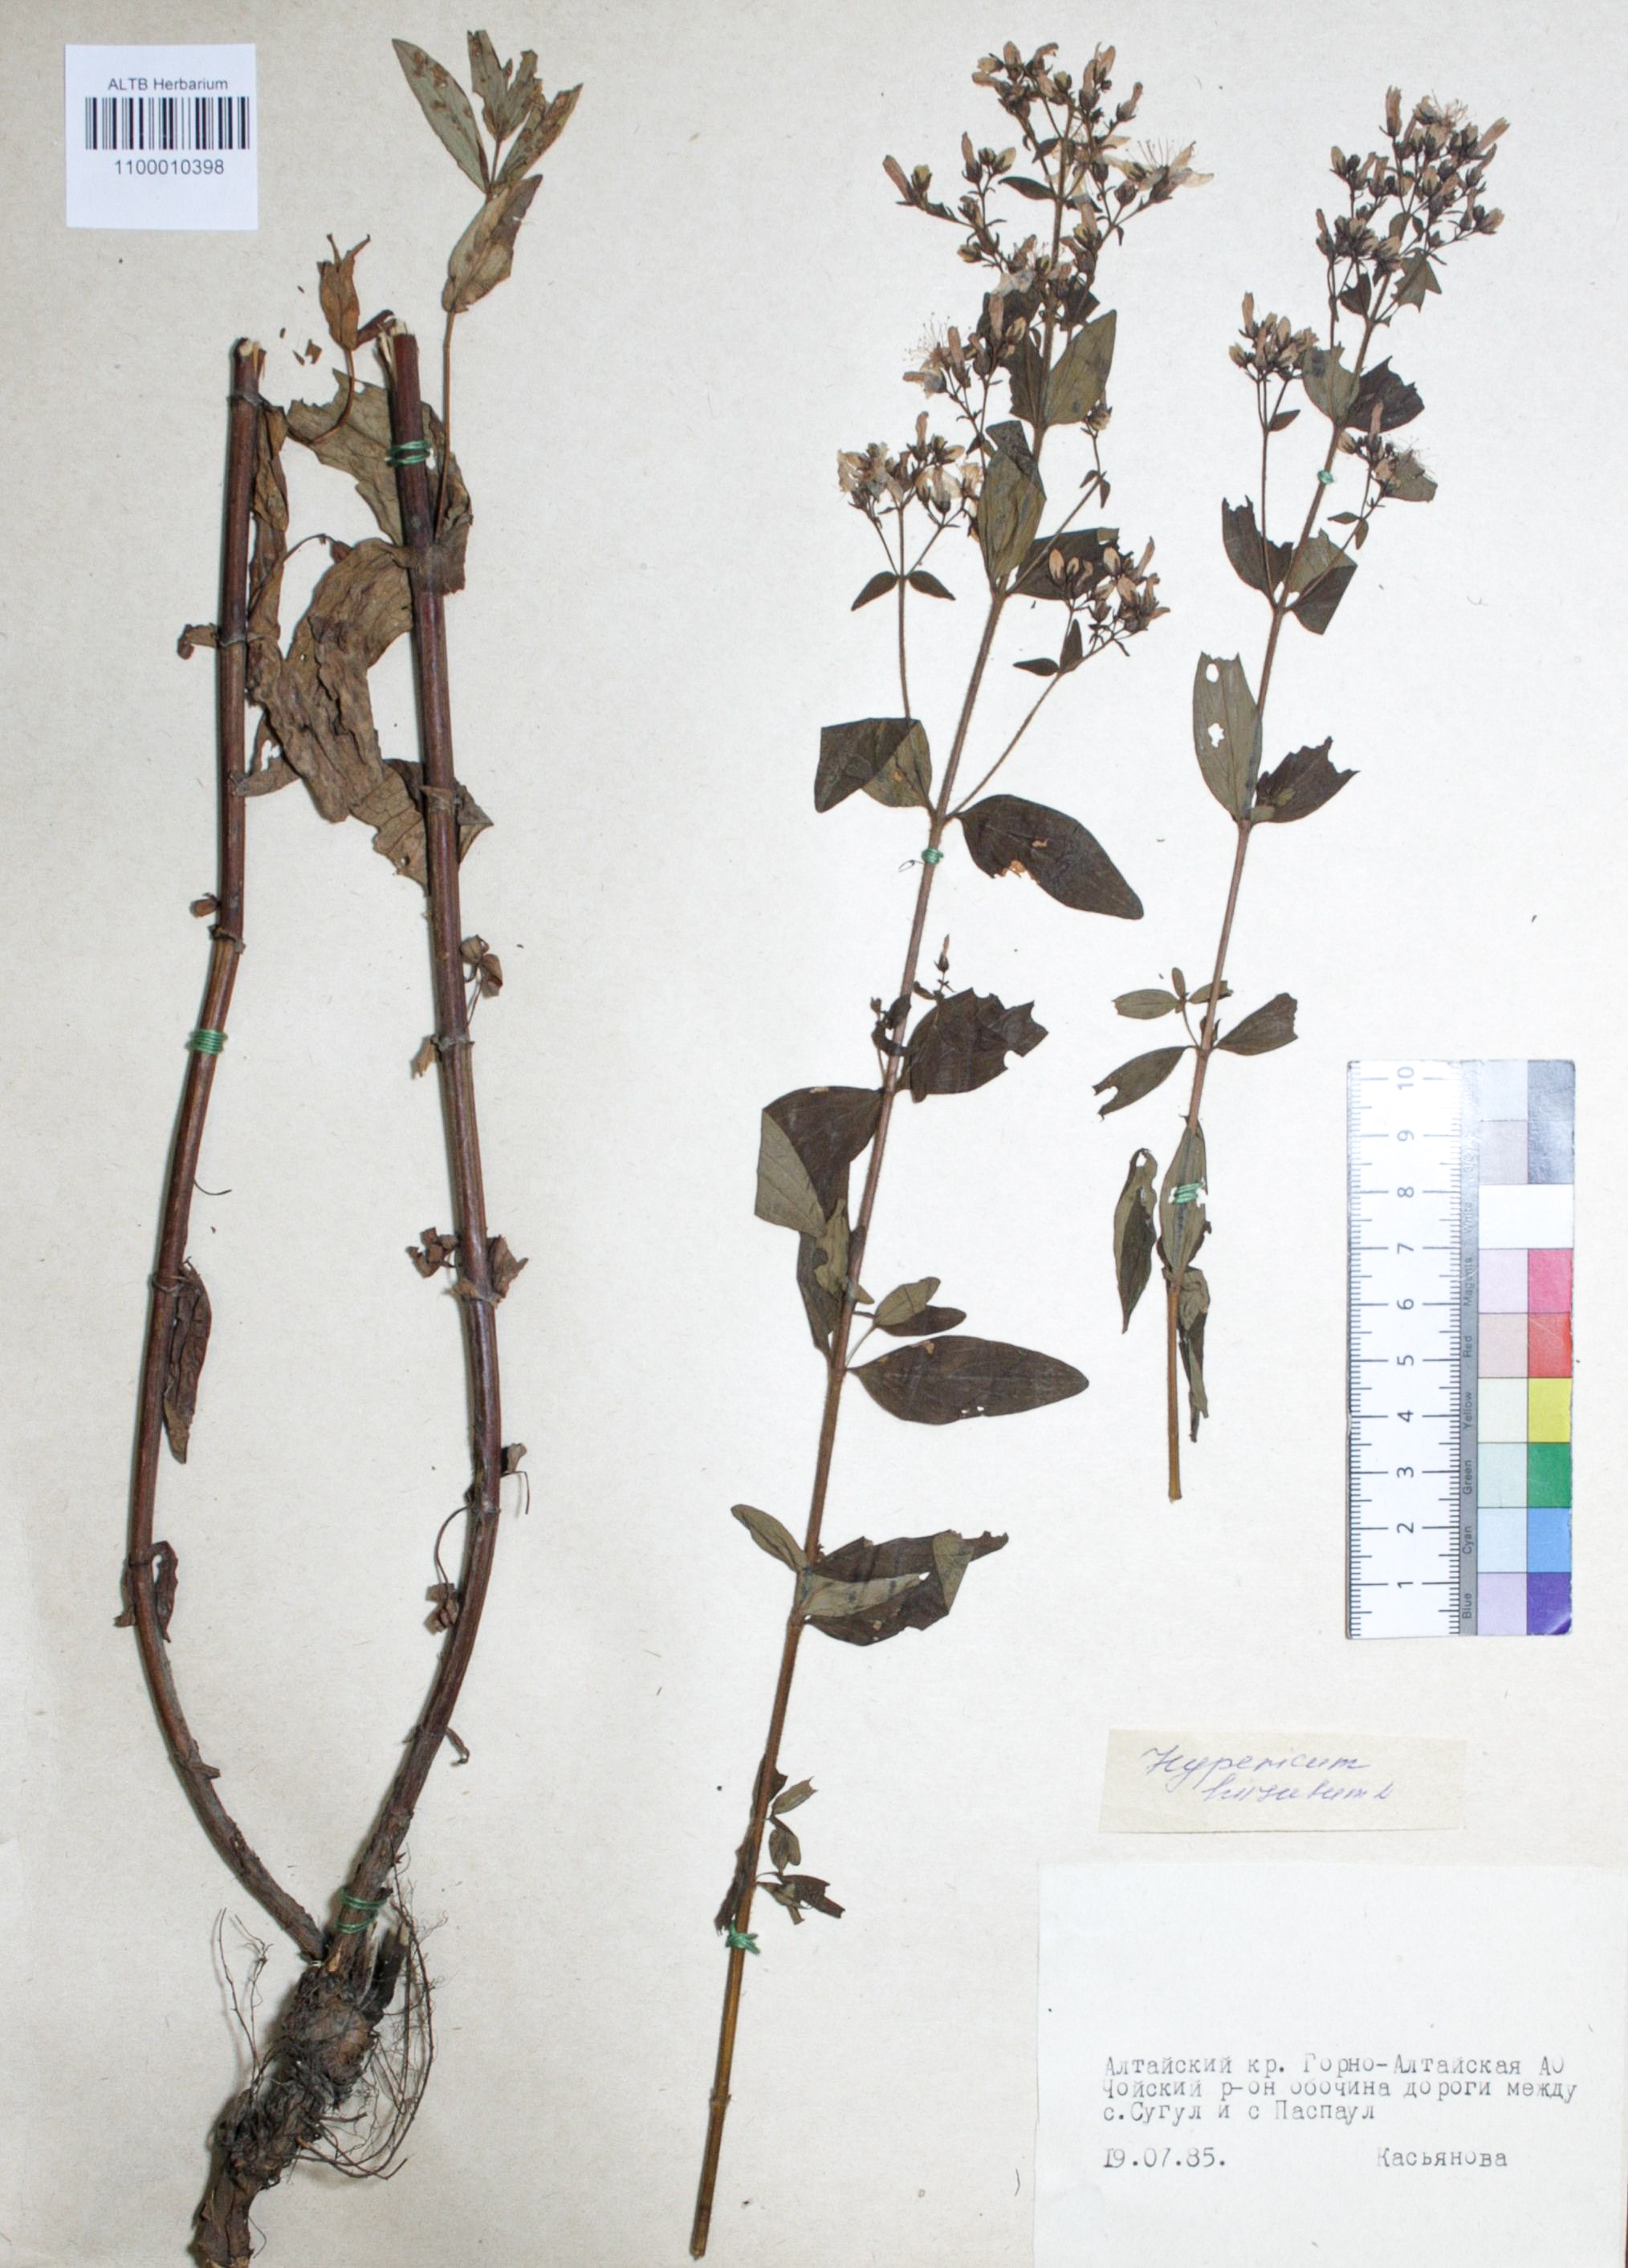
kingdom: Plantae
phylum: Tracheophyta
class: Magnoliopsida
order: Malpighiales
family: Hypericaceae
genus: Hypericum
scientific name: Hypericum hirsutum
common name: Hairy st. john's-wort
